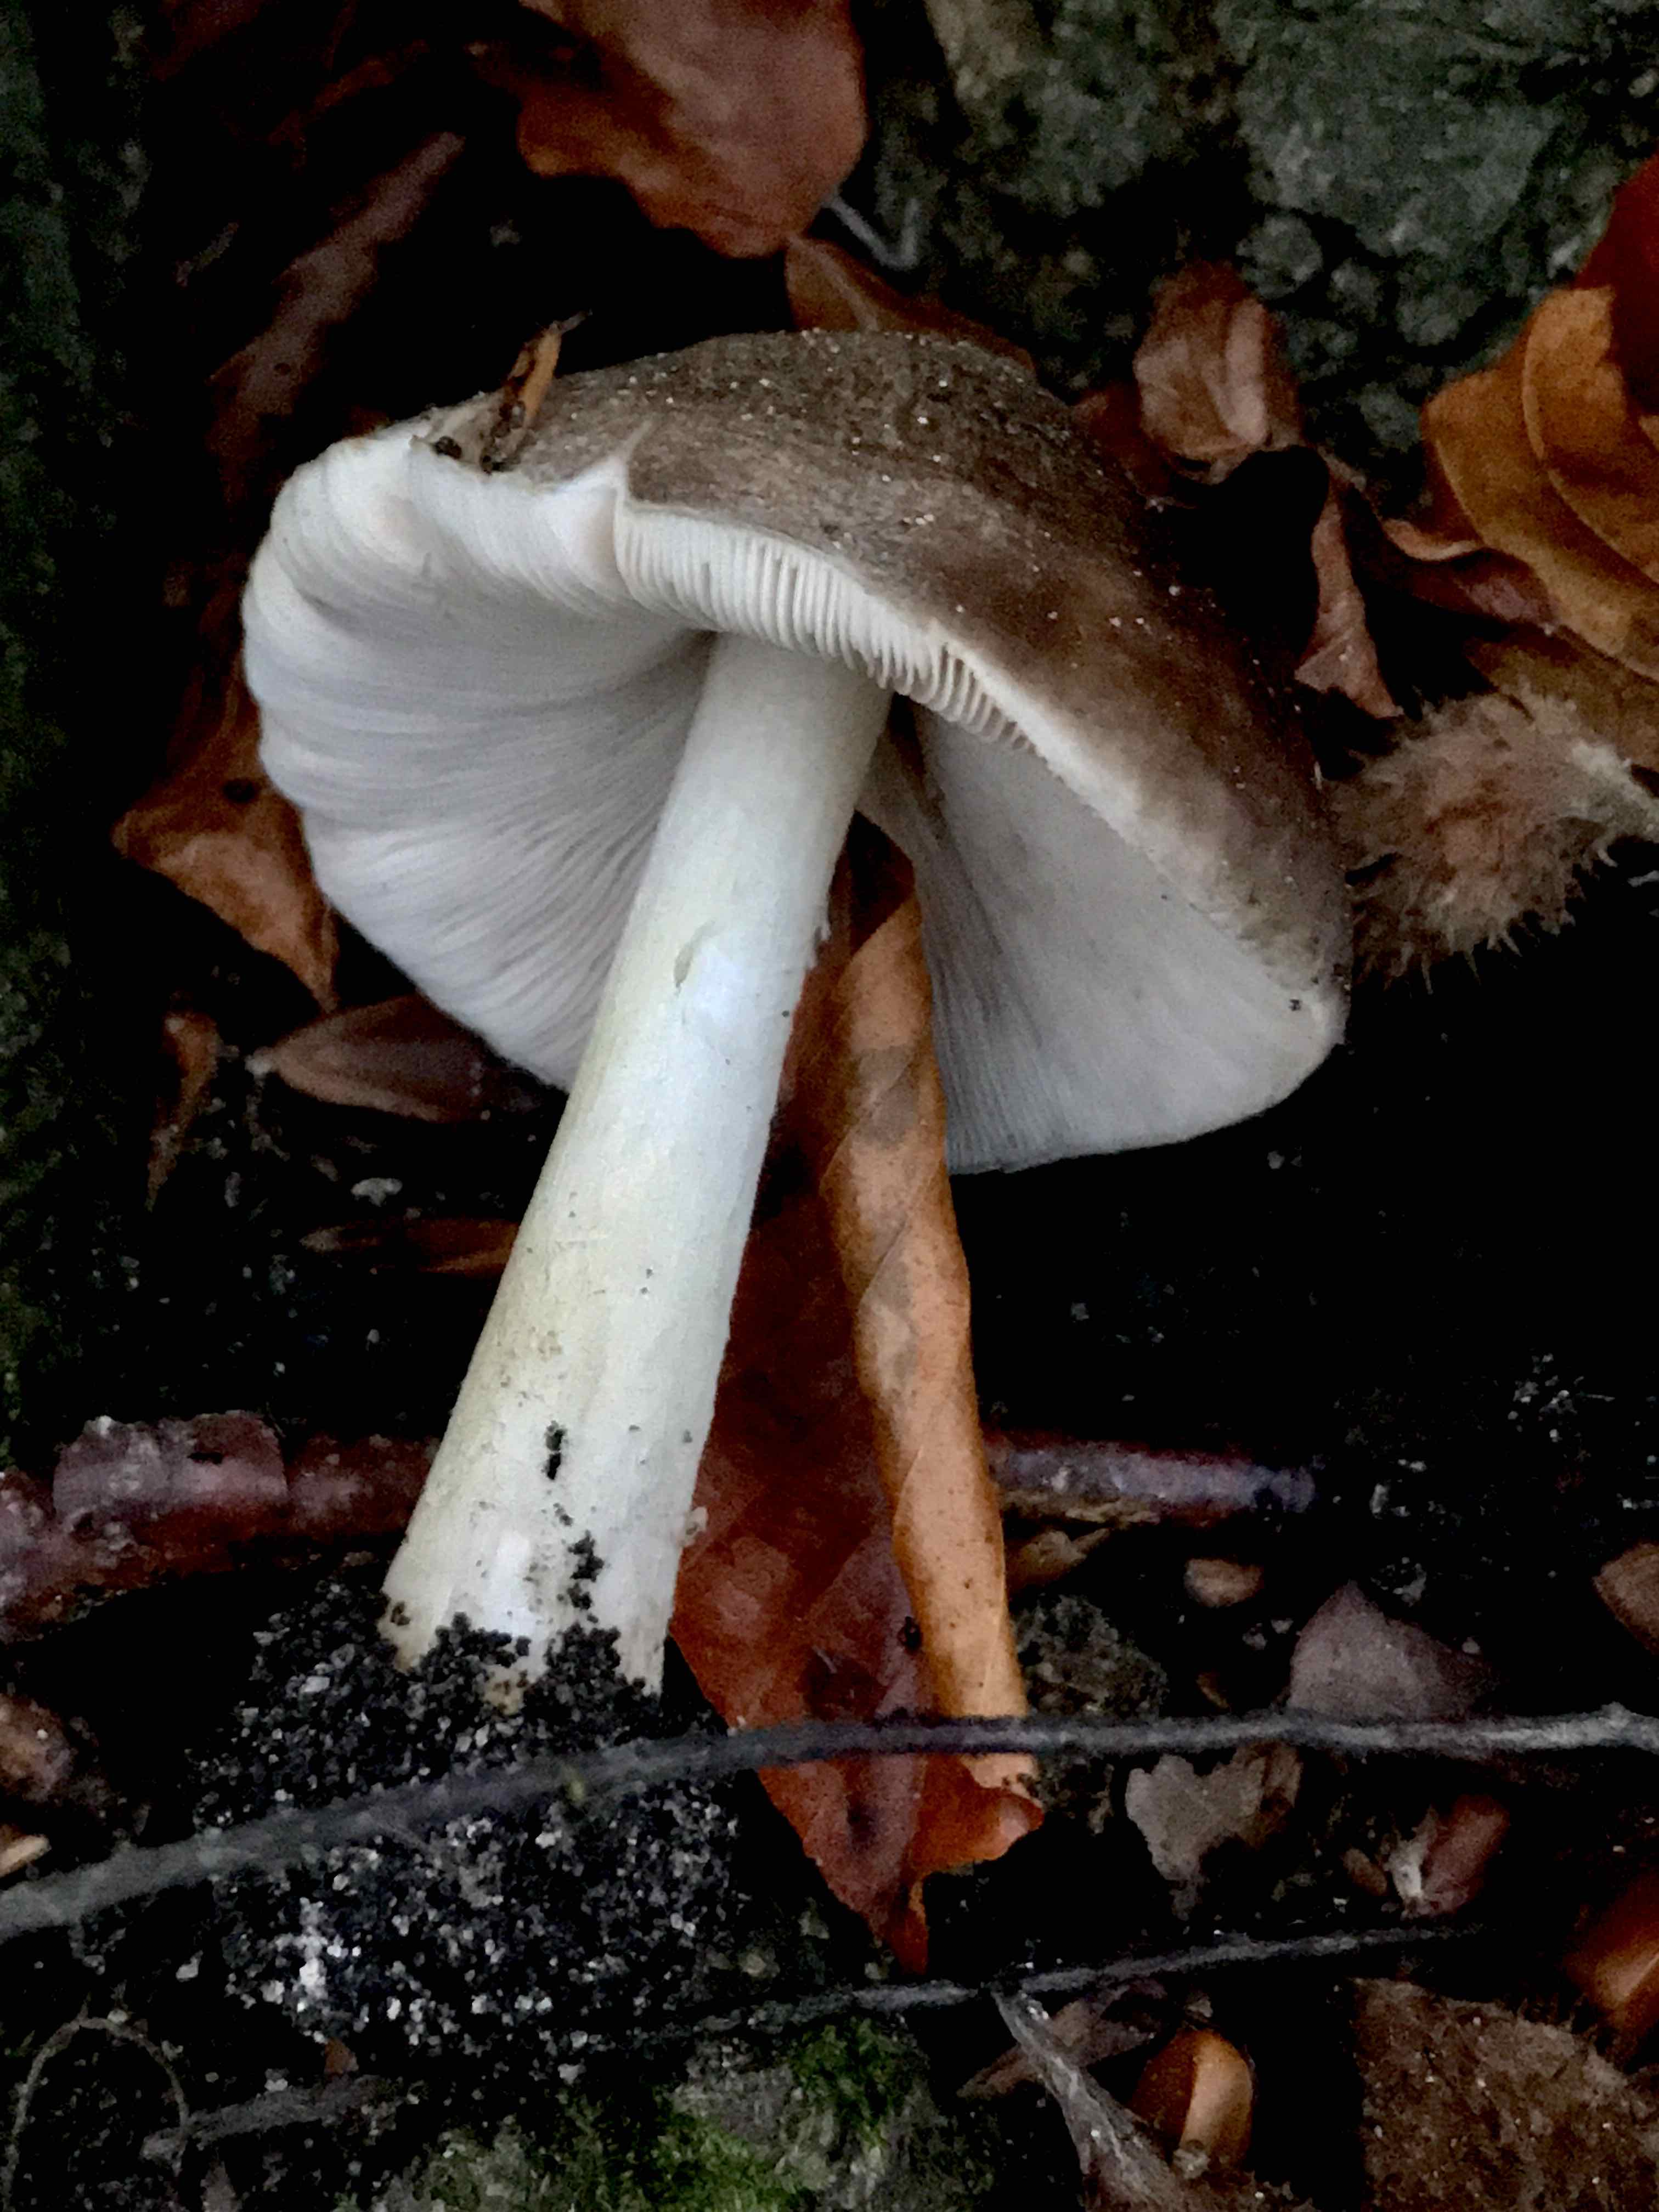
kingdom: Fungi
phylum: Basidiomycota
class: Agaricomycetes
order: Agaricales
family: Pluteaceae
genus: Pluteus
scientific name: Pluteus cervinus
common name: sodfarvet skærmhat
